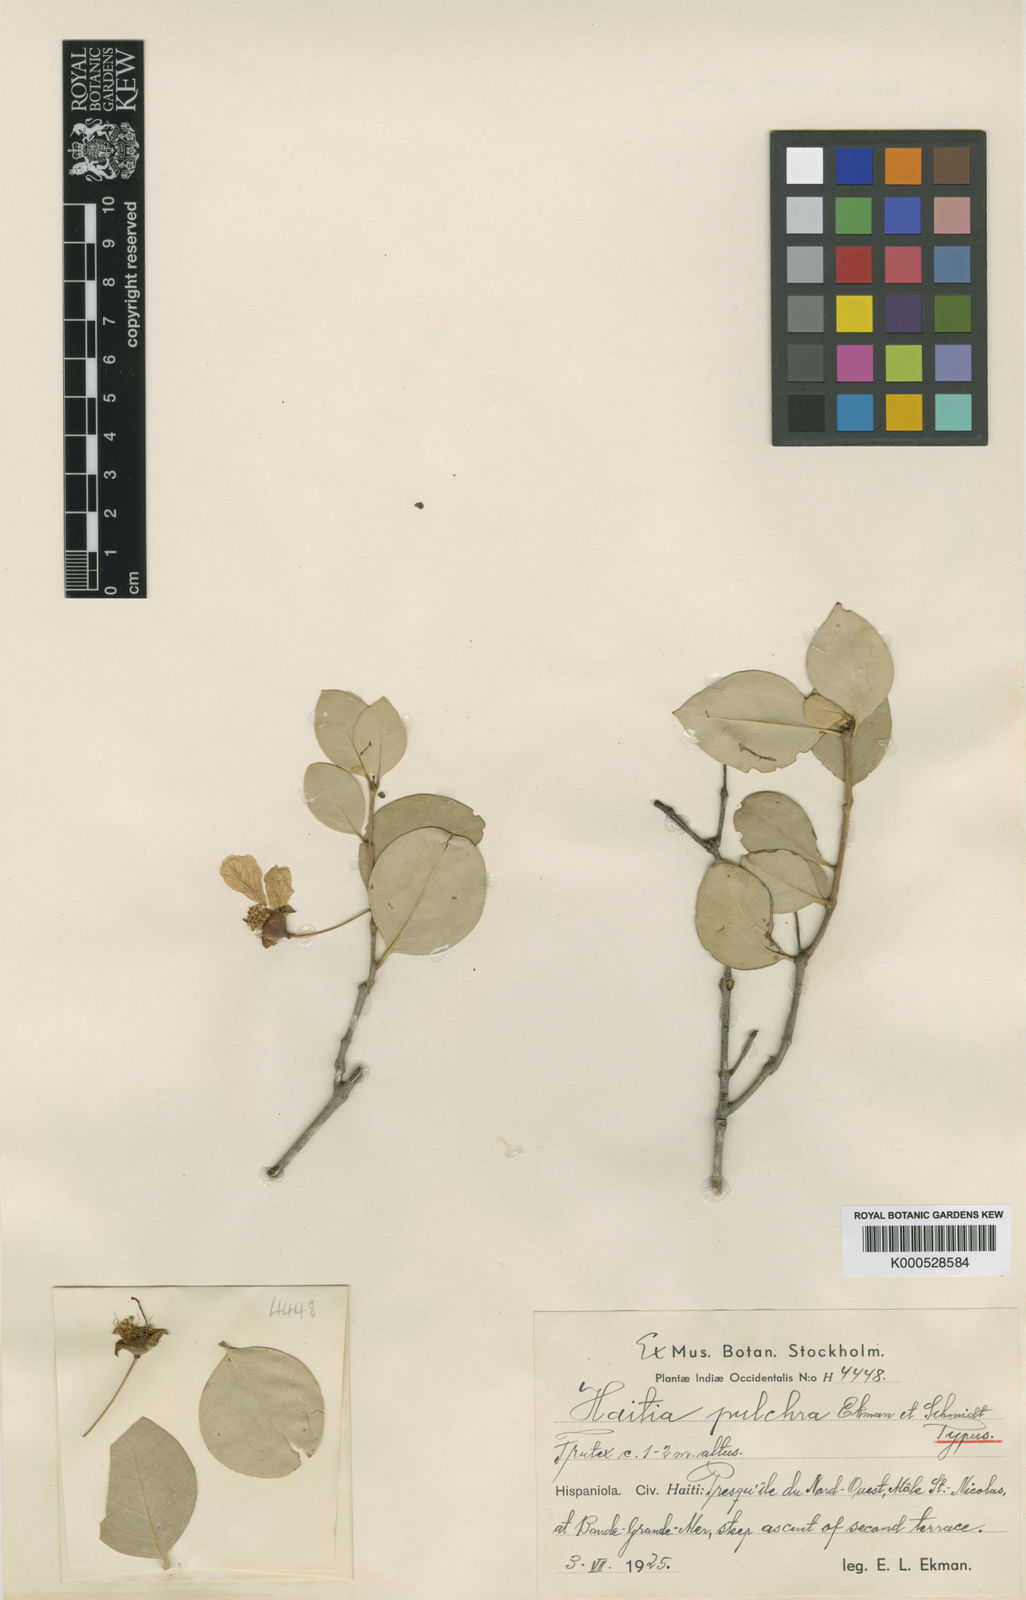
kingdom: Plantae
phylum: Tracheophyta
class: Magnoliopsida
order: Myrtales
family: Lythraceae
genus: Ginoria
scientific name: Ginoria pulchra
